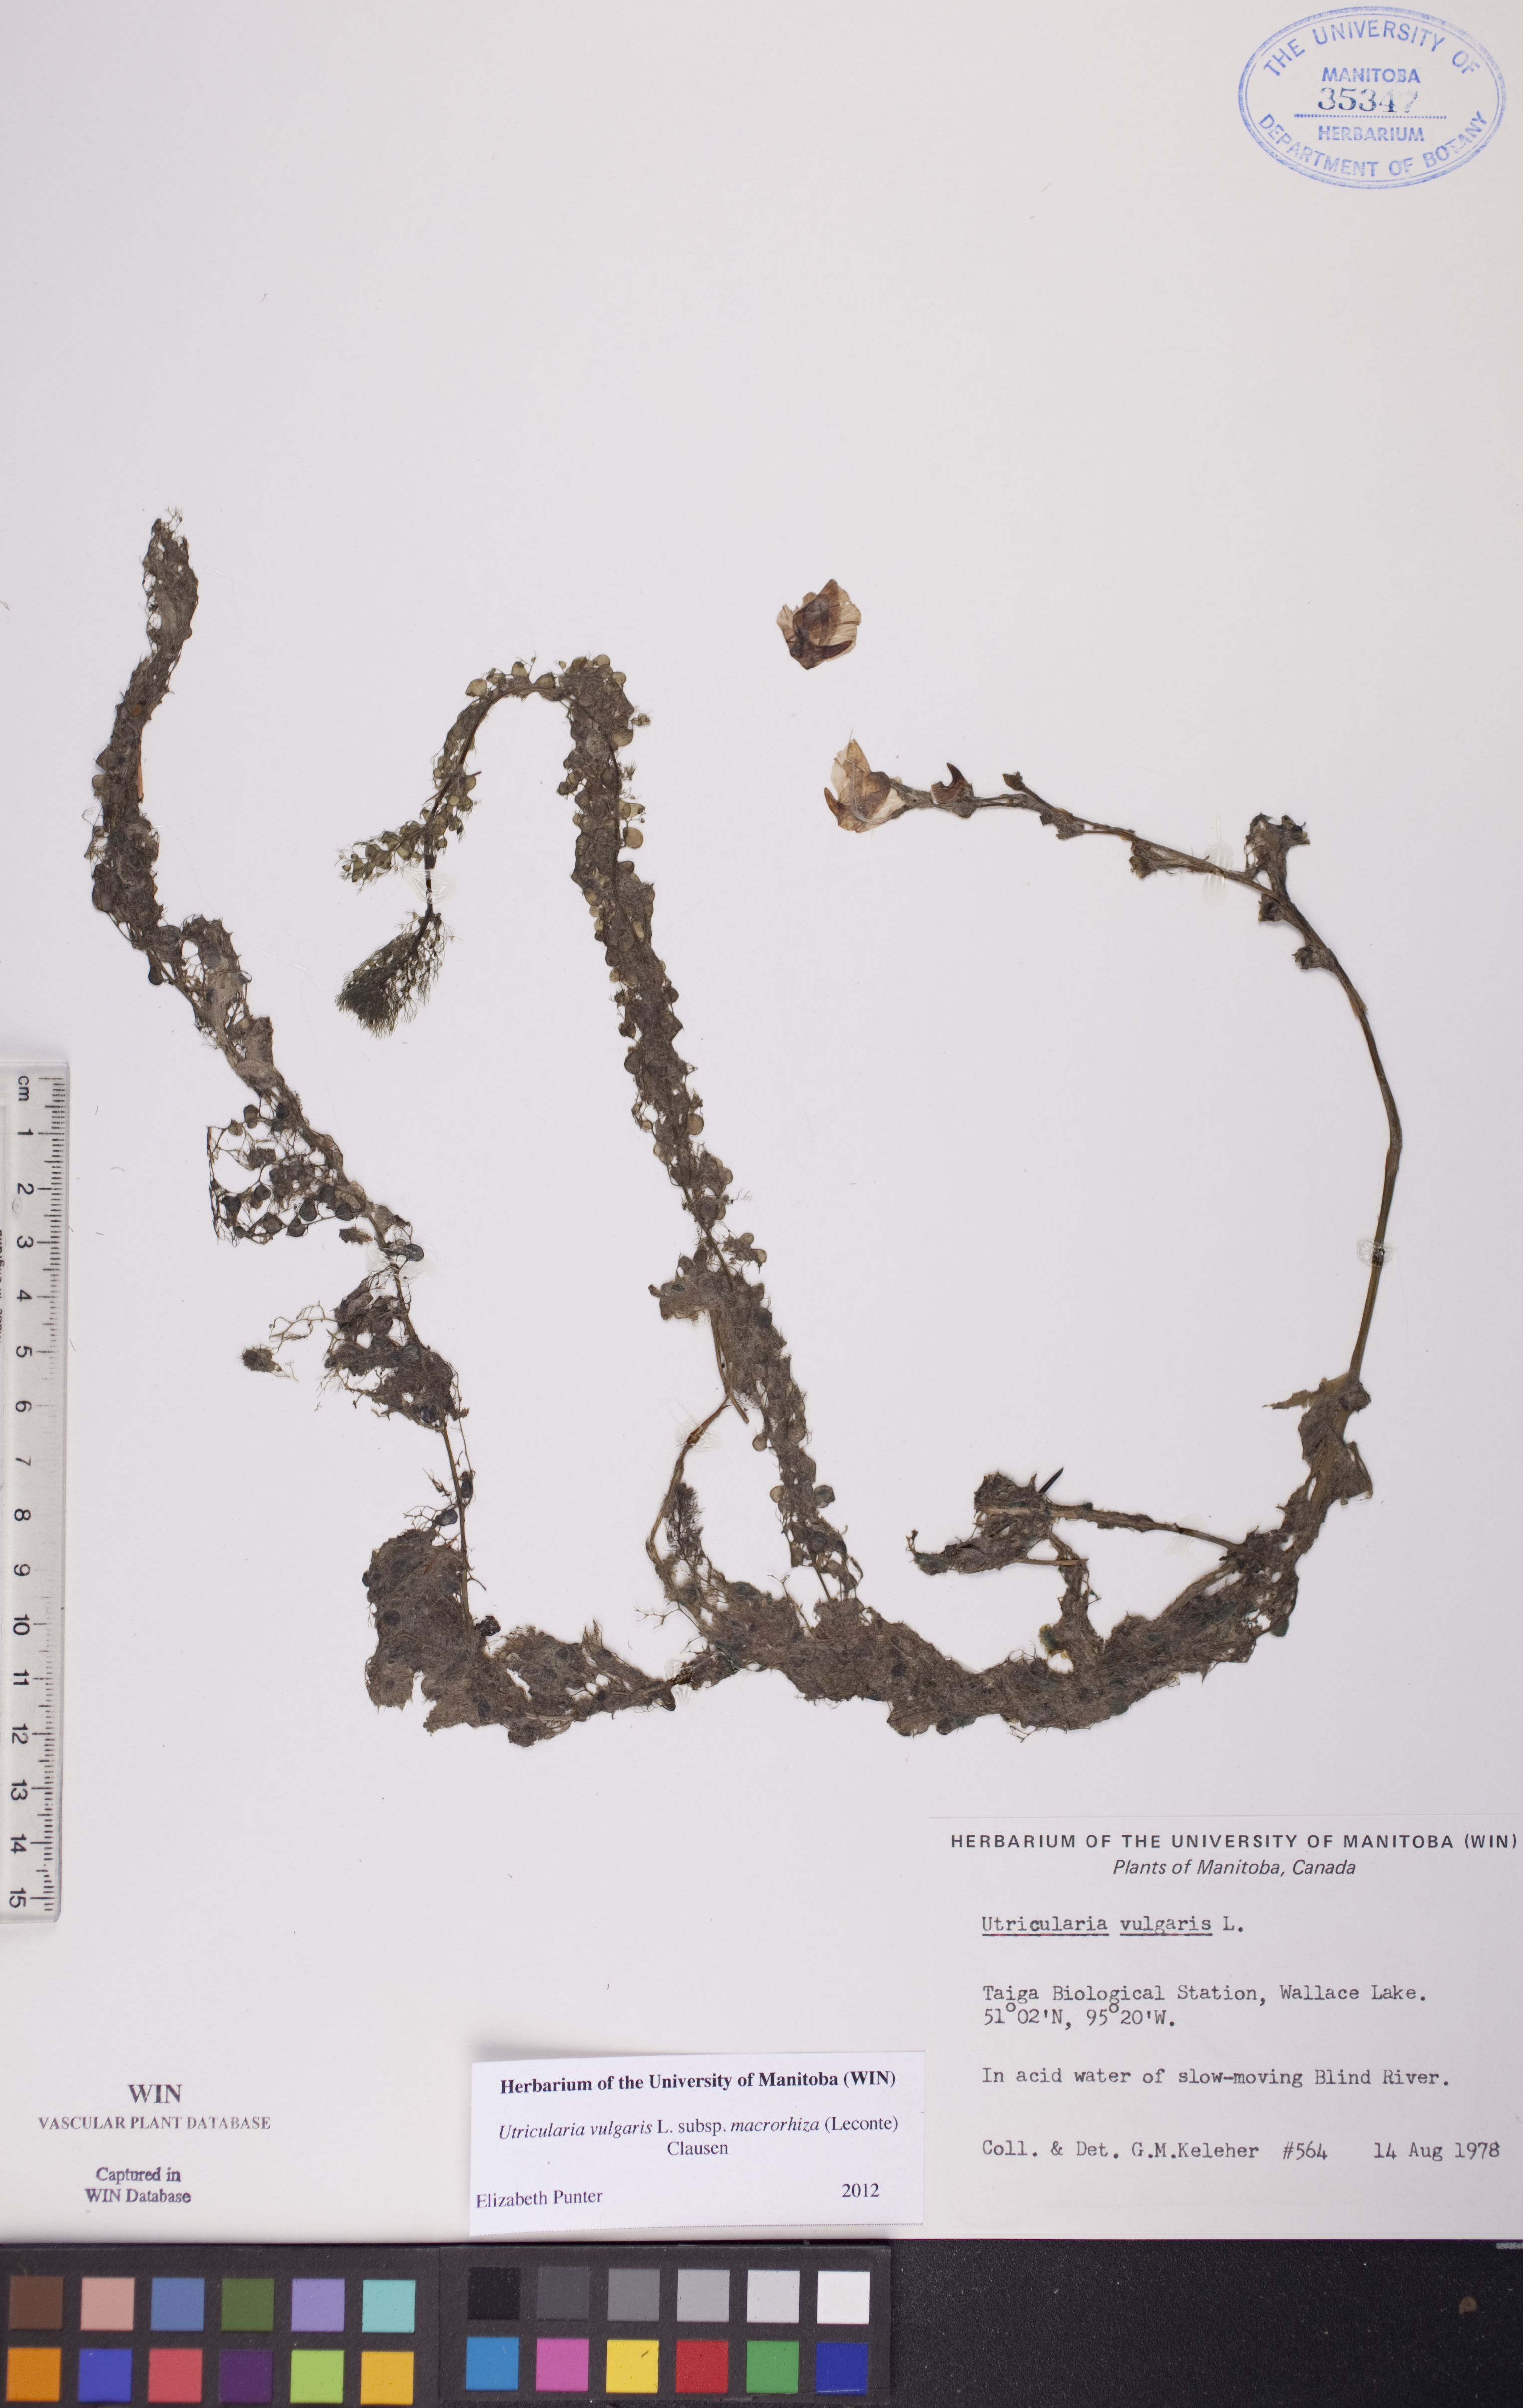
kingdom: Plantae
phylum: Tracheophyta
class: Magnoliopsida
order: Lamiales
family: Lentibulariaceae
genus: Utricularia
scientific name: Utricularia macrorhiza
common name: Common bladderwort
